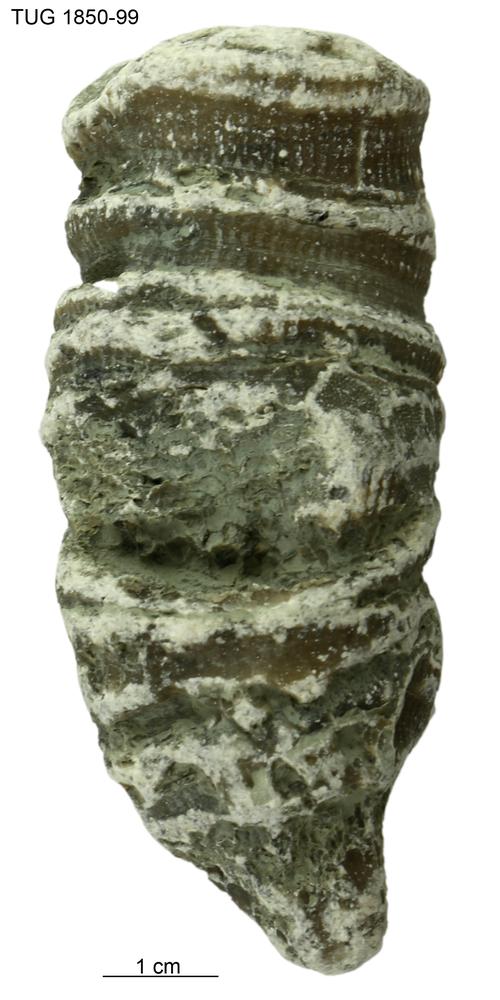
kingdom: Animalia
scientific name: Animalia
